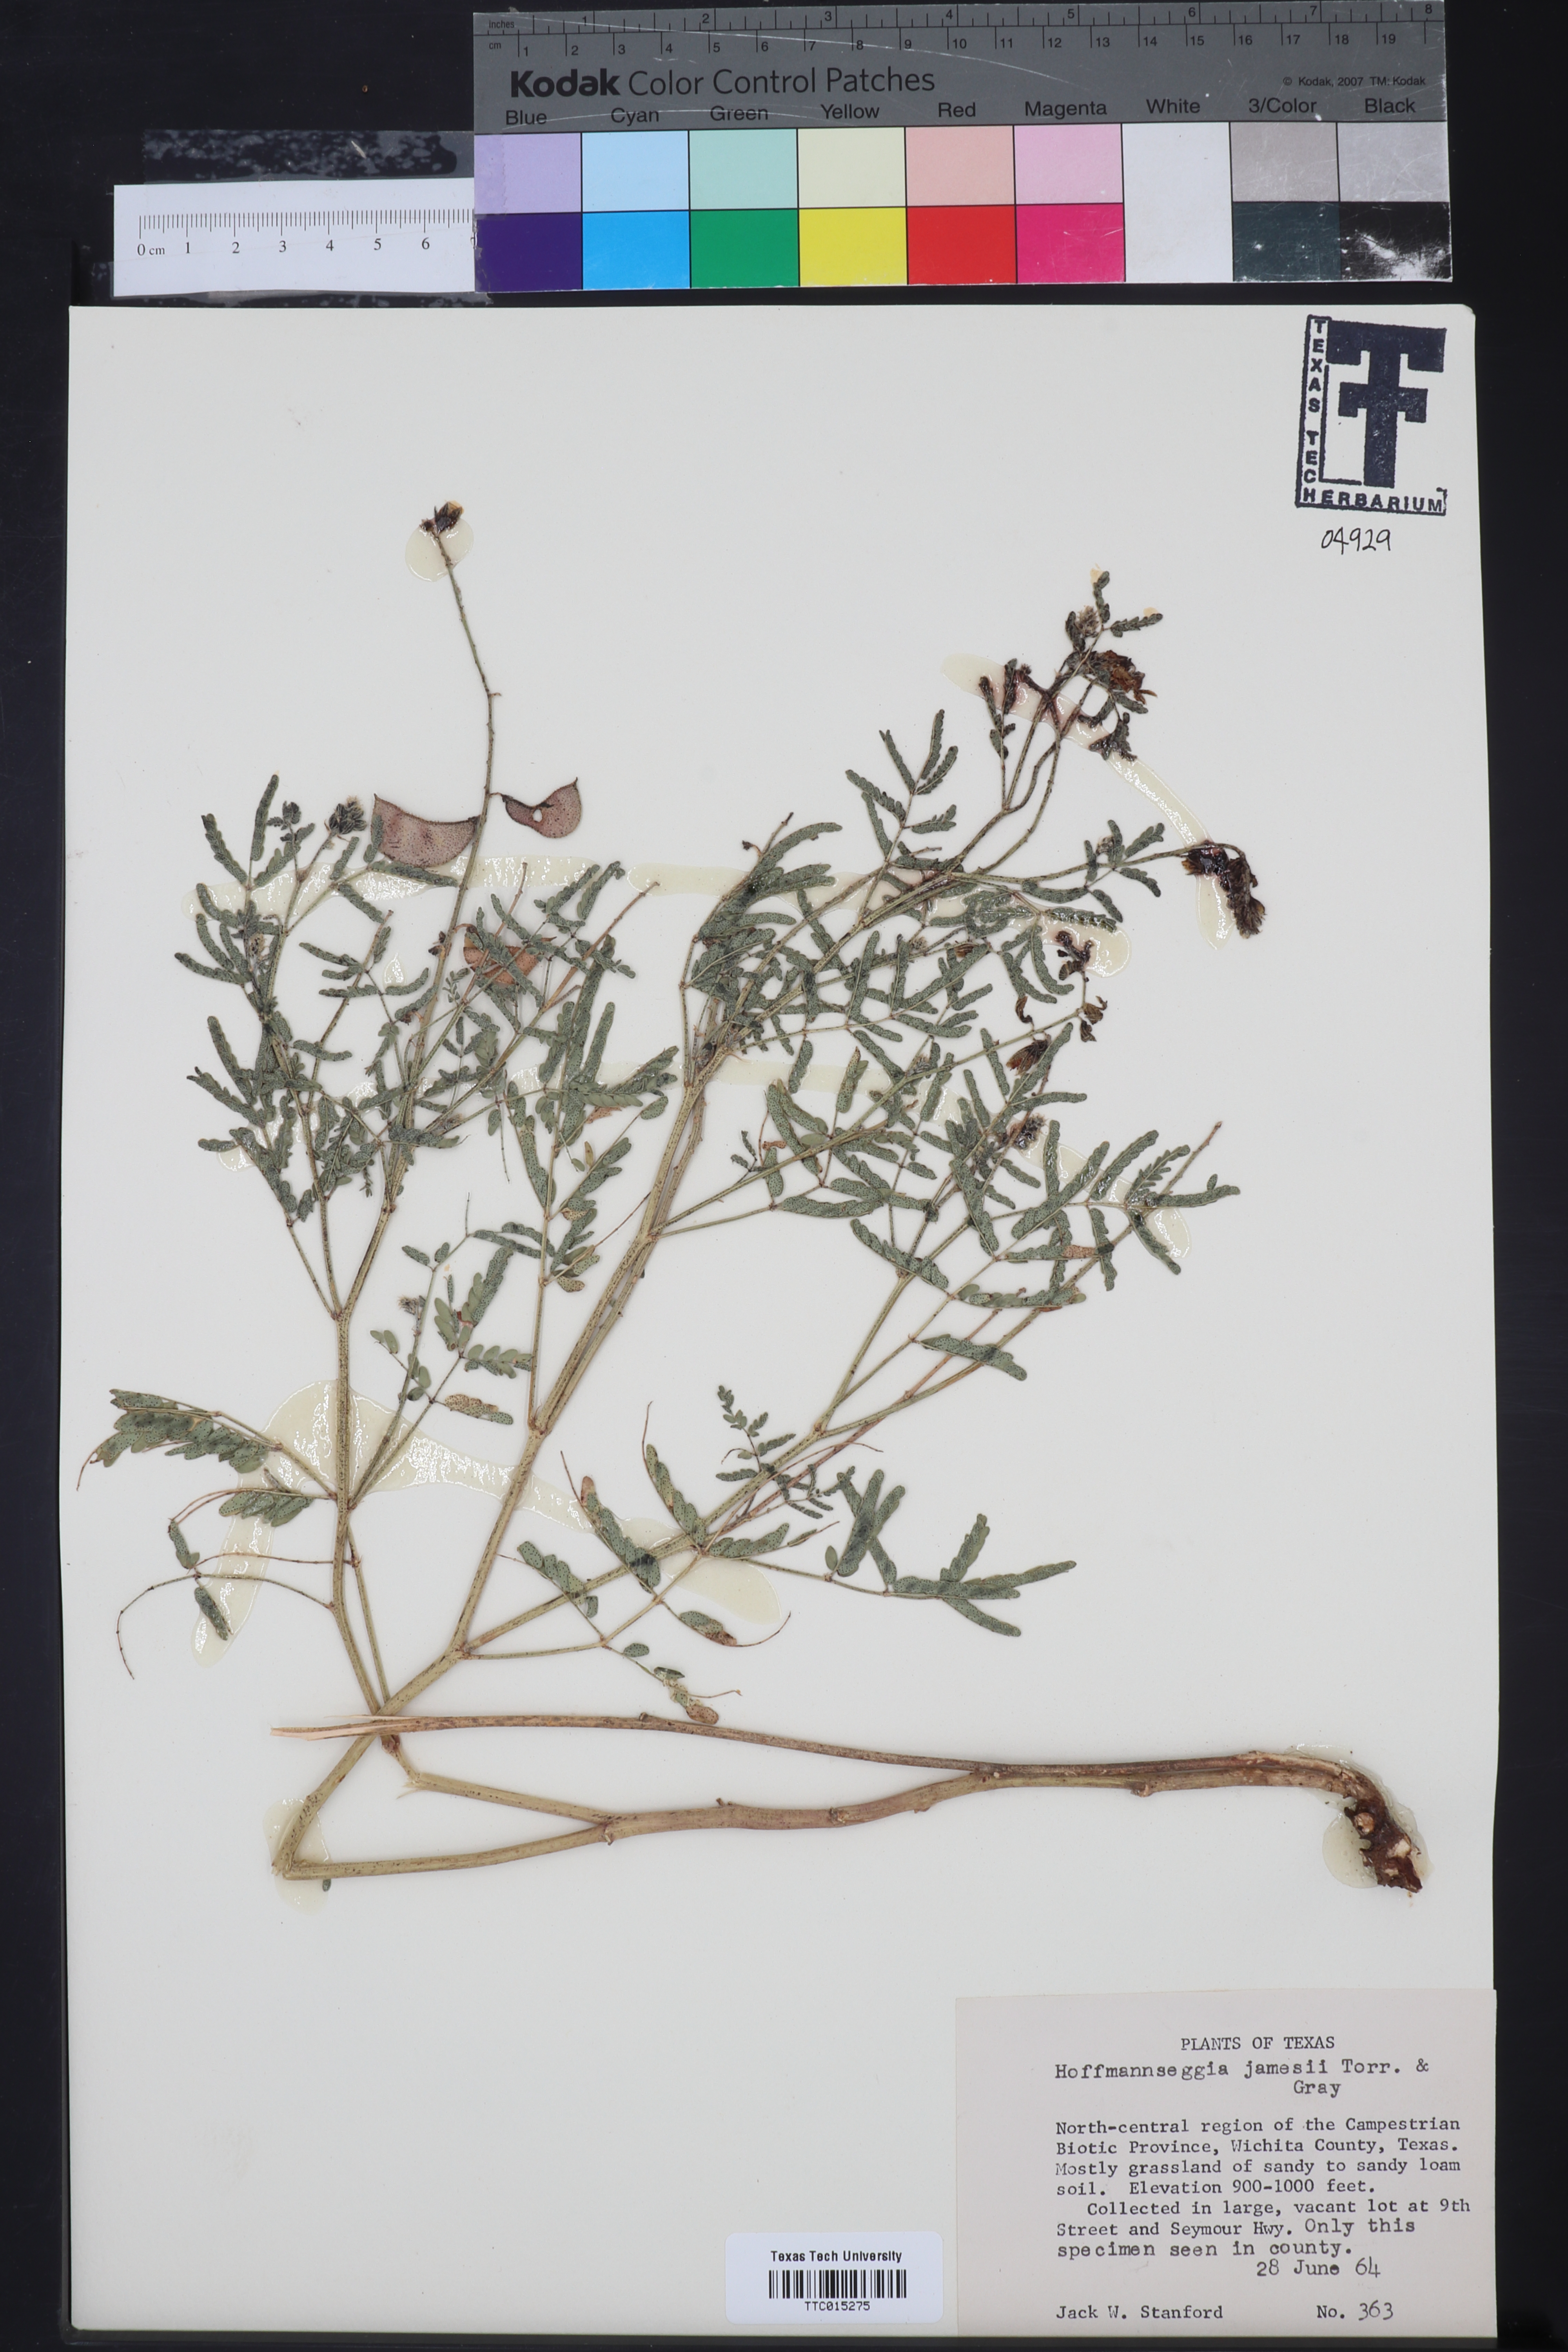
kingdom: Plantae
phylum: Tracheophyta
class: Magnoliopsida
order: Fabales
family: Fabaceae
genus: Hoffmannseggia
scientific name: Hoffmannseggia glauca
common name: Pignut
